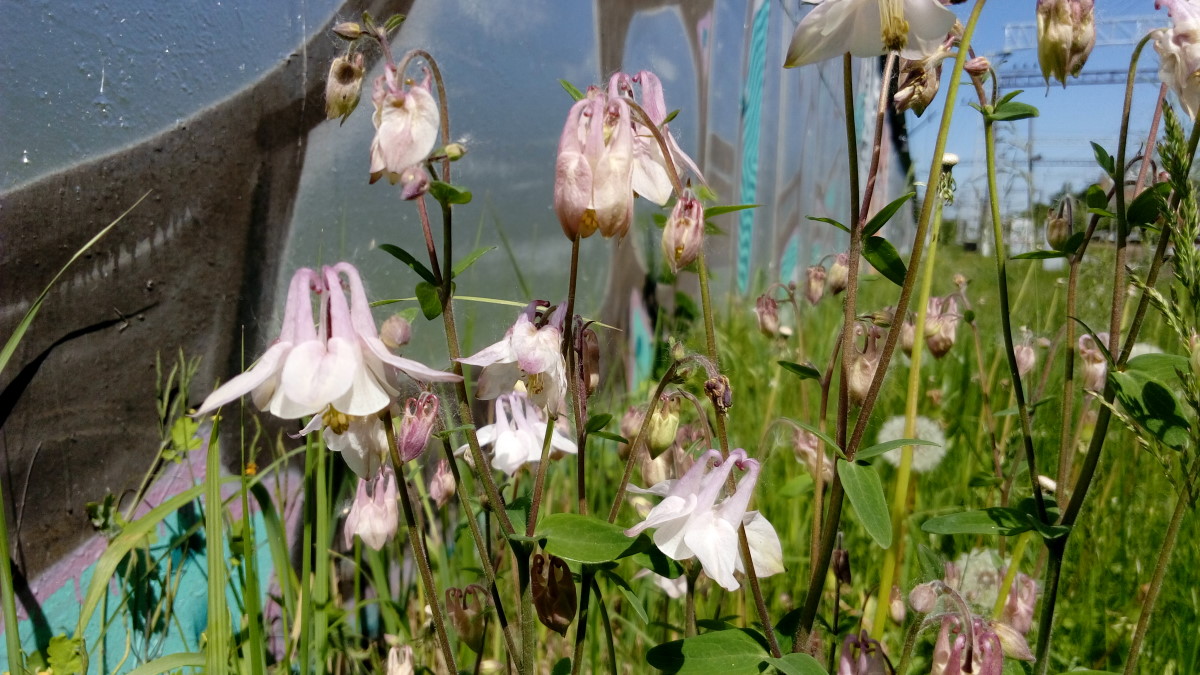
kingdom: Plantae
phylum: Tracheophyta
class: Magnoliopsida
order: Ranunculales
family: Ranunculaceae
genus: Aquilegia
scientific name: Aquilegia vulgaris
